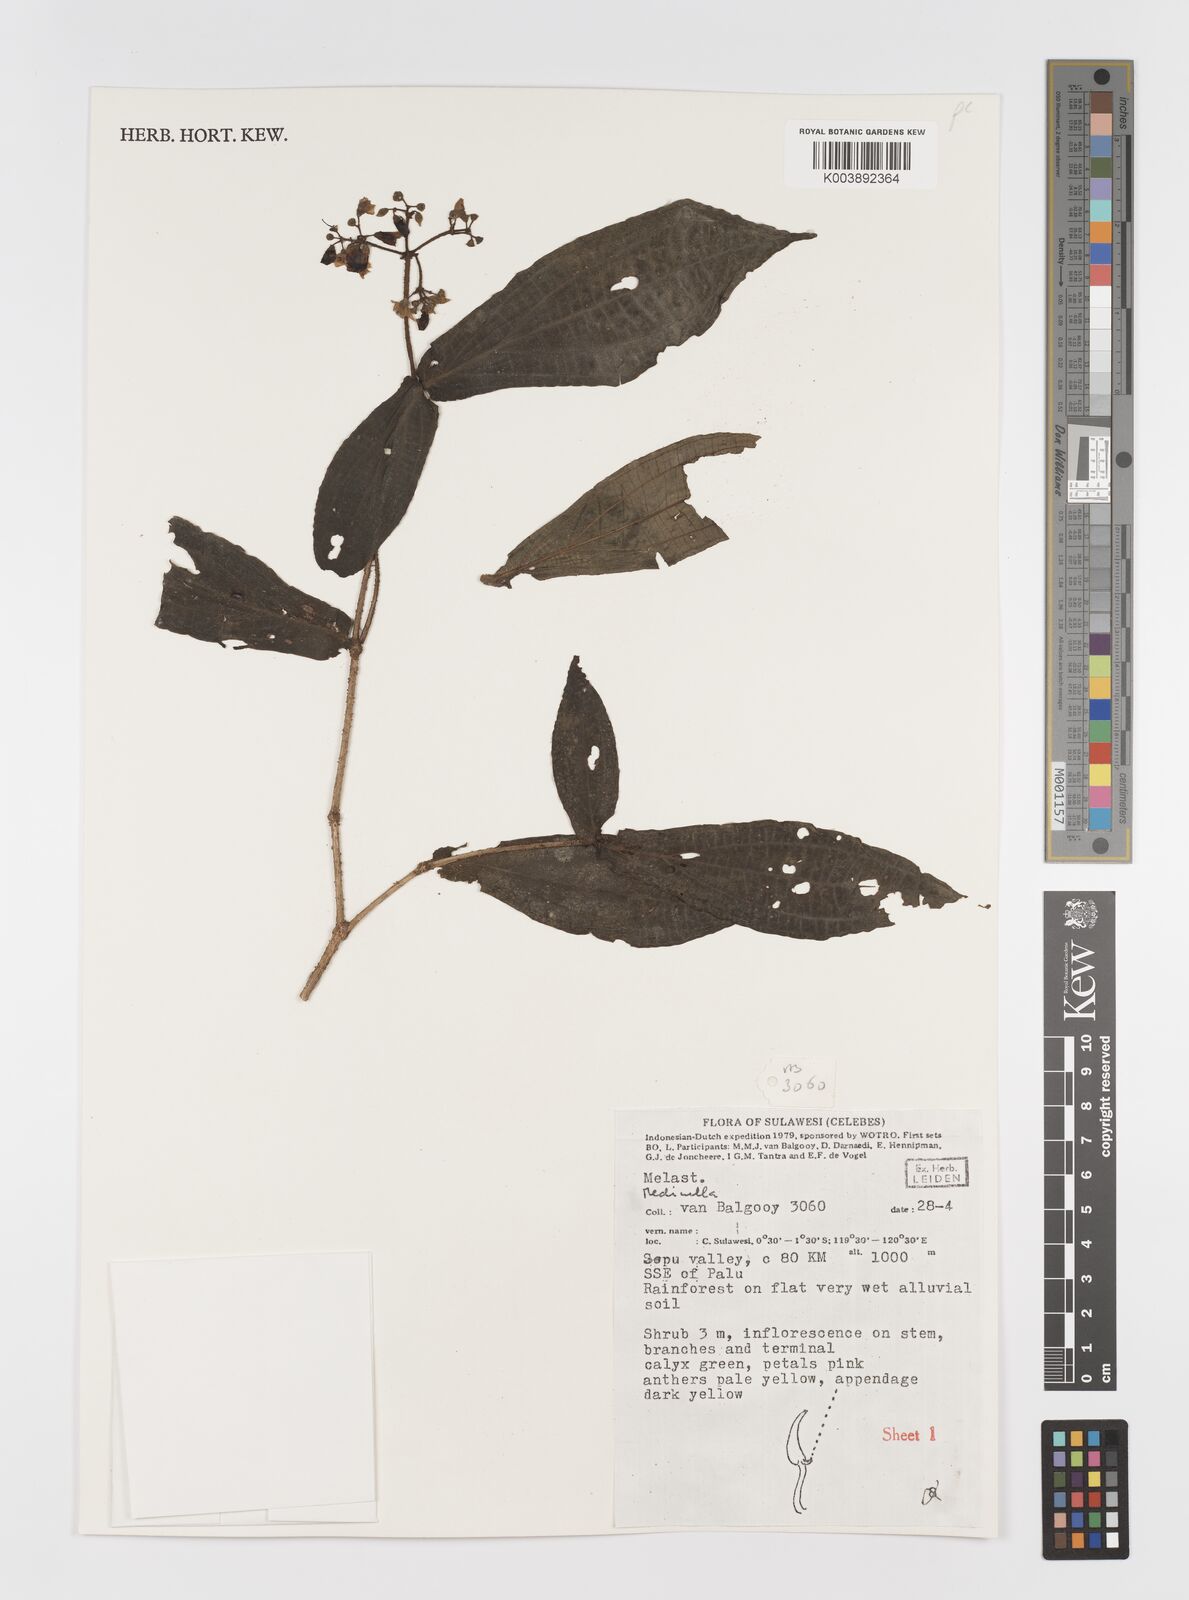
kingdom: Plantae
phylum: Tracheophyta
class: Magnoliopsida
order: Myrtales
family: Melastomataceae
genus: Medinilla
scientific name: Medinilla
